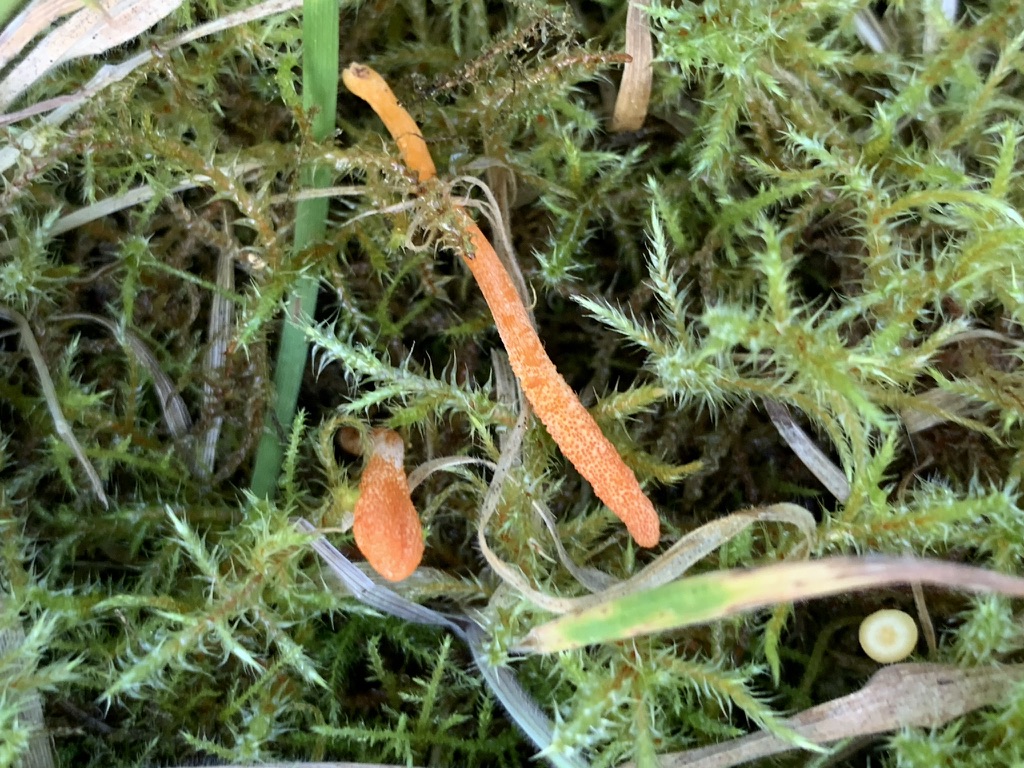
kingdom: Fungi
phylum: Ascomycota
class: Sordariomycetes
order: Hypocreales
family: Cordycipitaceae
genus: Cordyceps
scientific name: Cordyceps militaris
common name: puppe-snyltekølle
